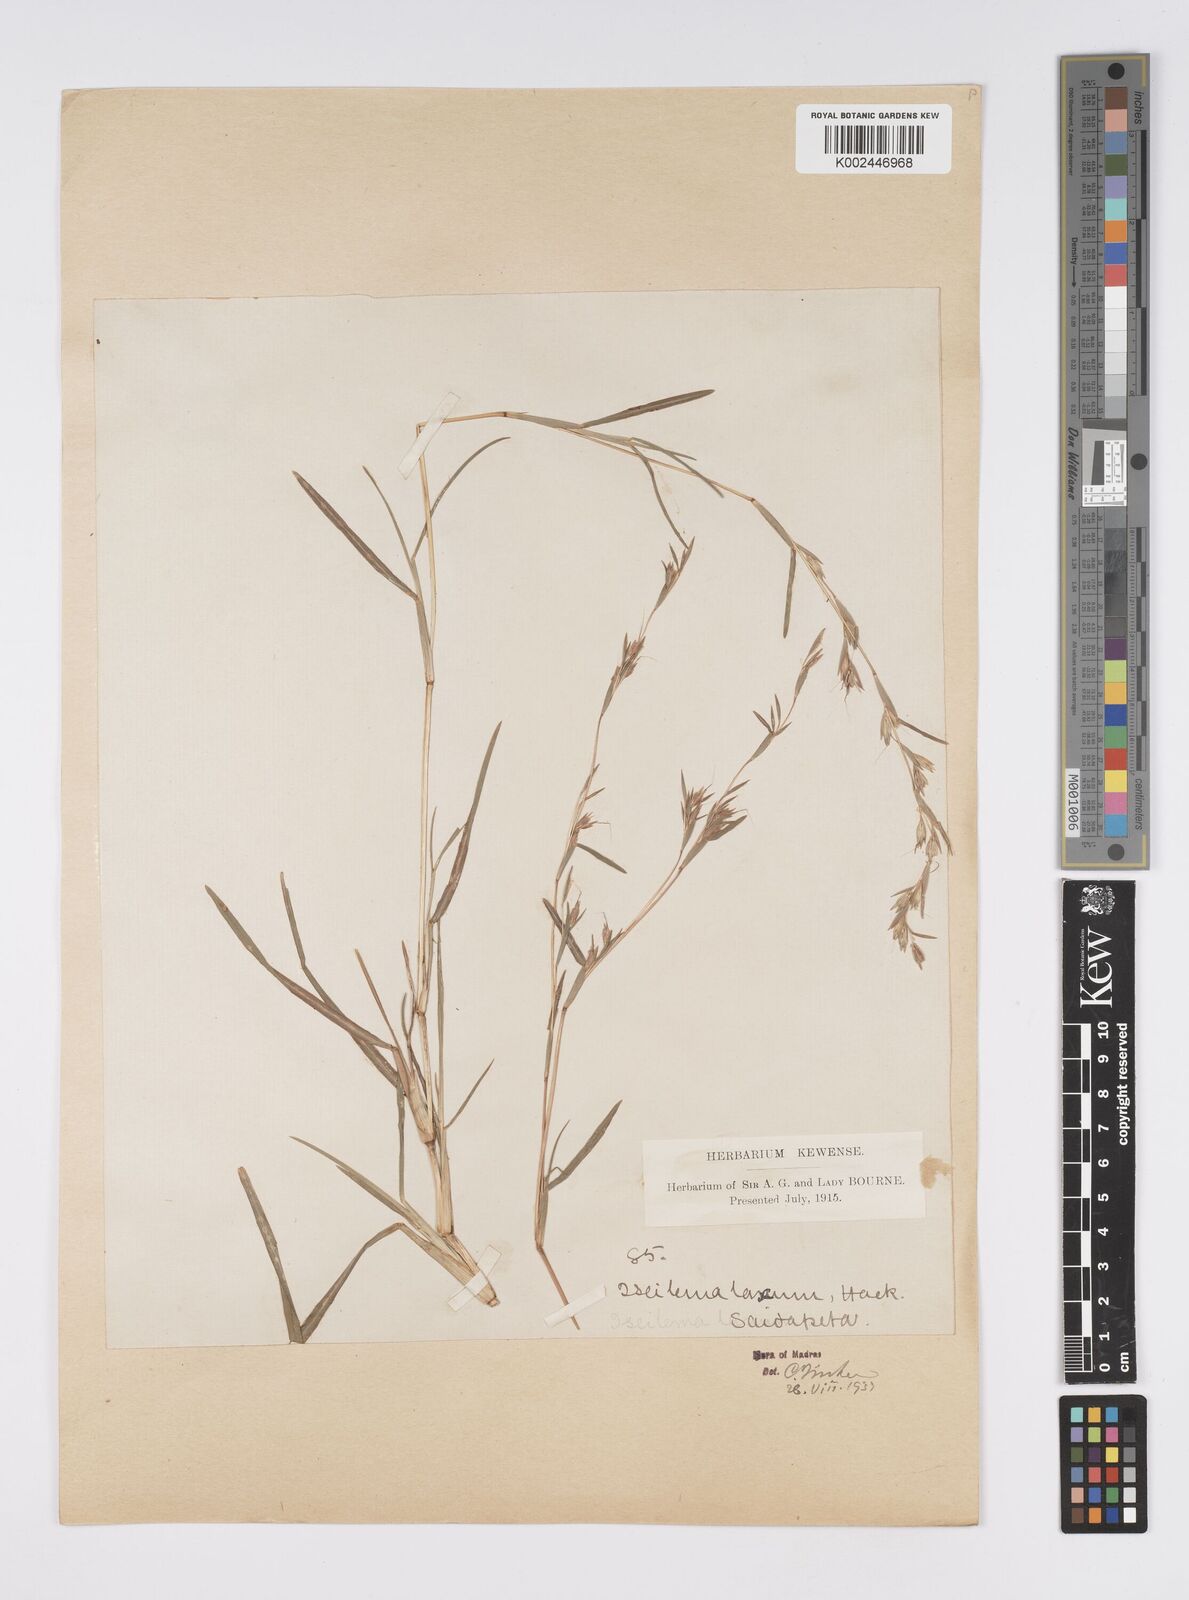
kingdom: Plantae
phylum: Tracheophyta
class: Liliopsida
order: Poales
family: Poaceae
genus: Iseilema
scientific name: Iseilema prostratum
